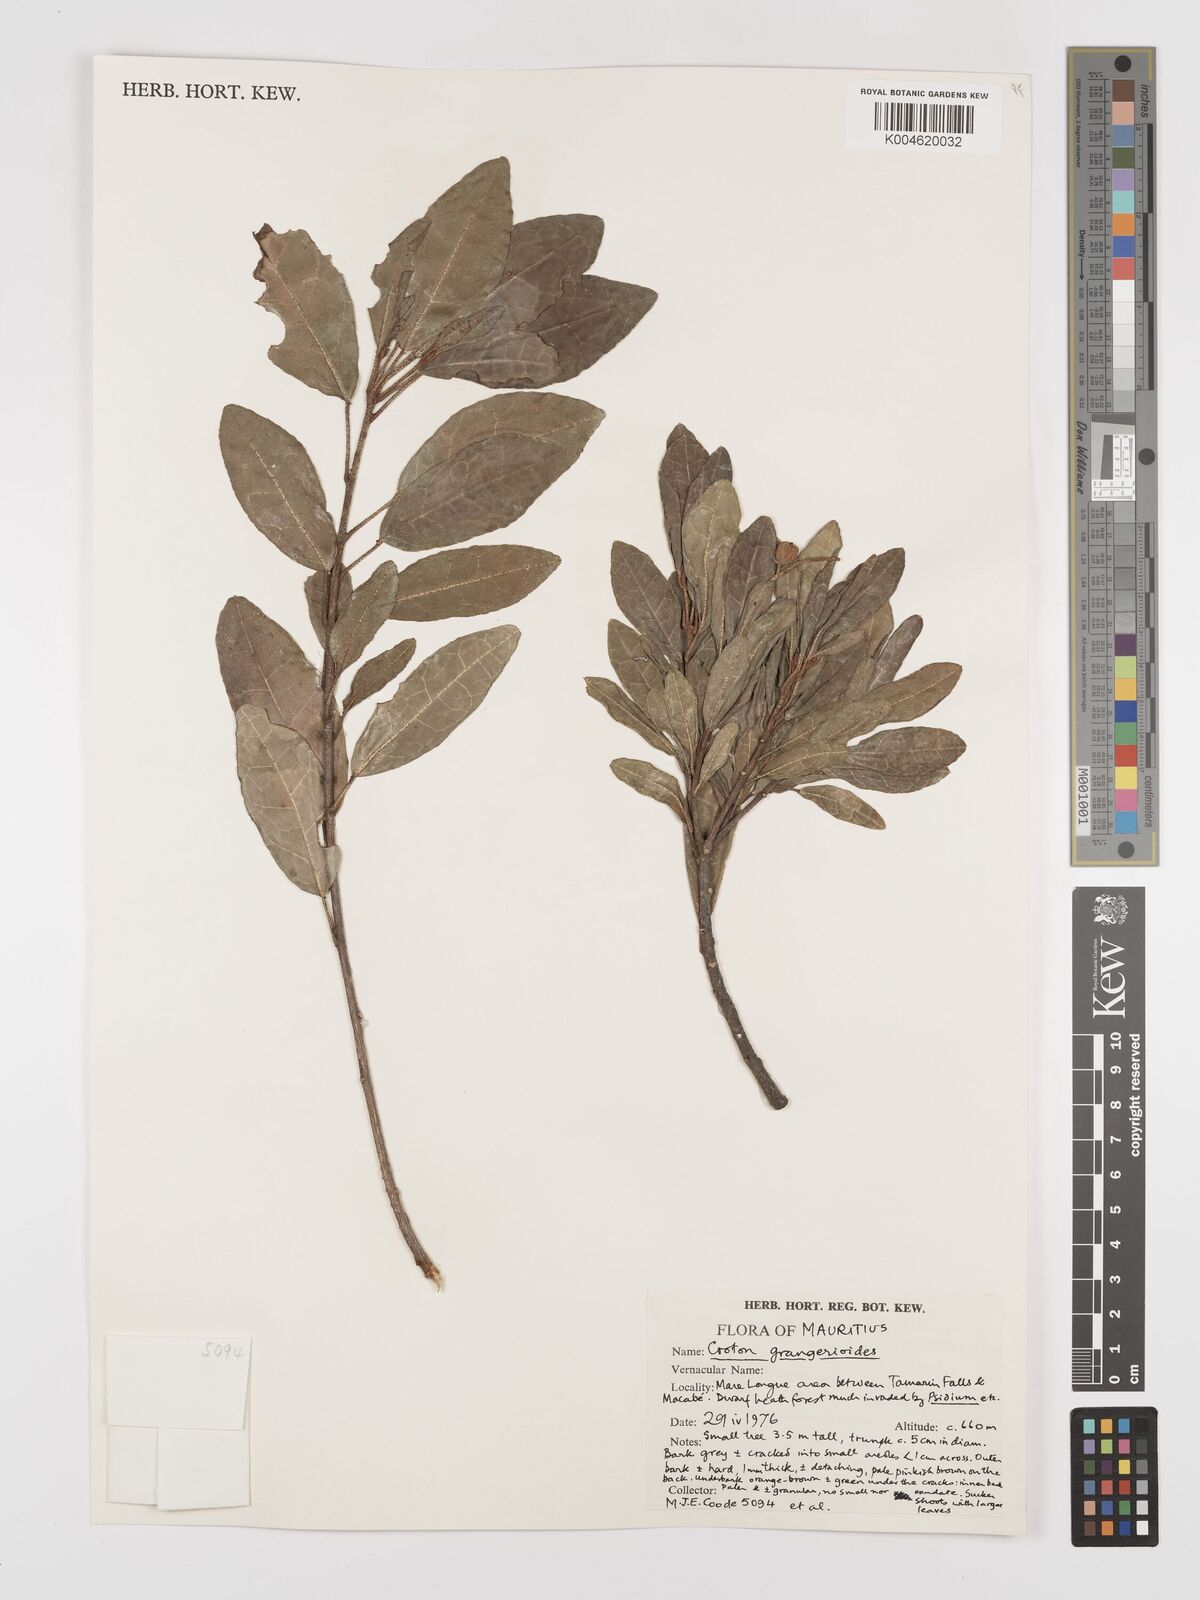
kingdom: Plantae
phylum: Tracheophyta
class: Magnoliopsida
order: Malpighiales
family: Euphorbiaceae
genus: Croton
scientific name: Croton grangerioides
